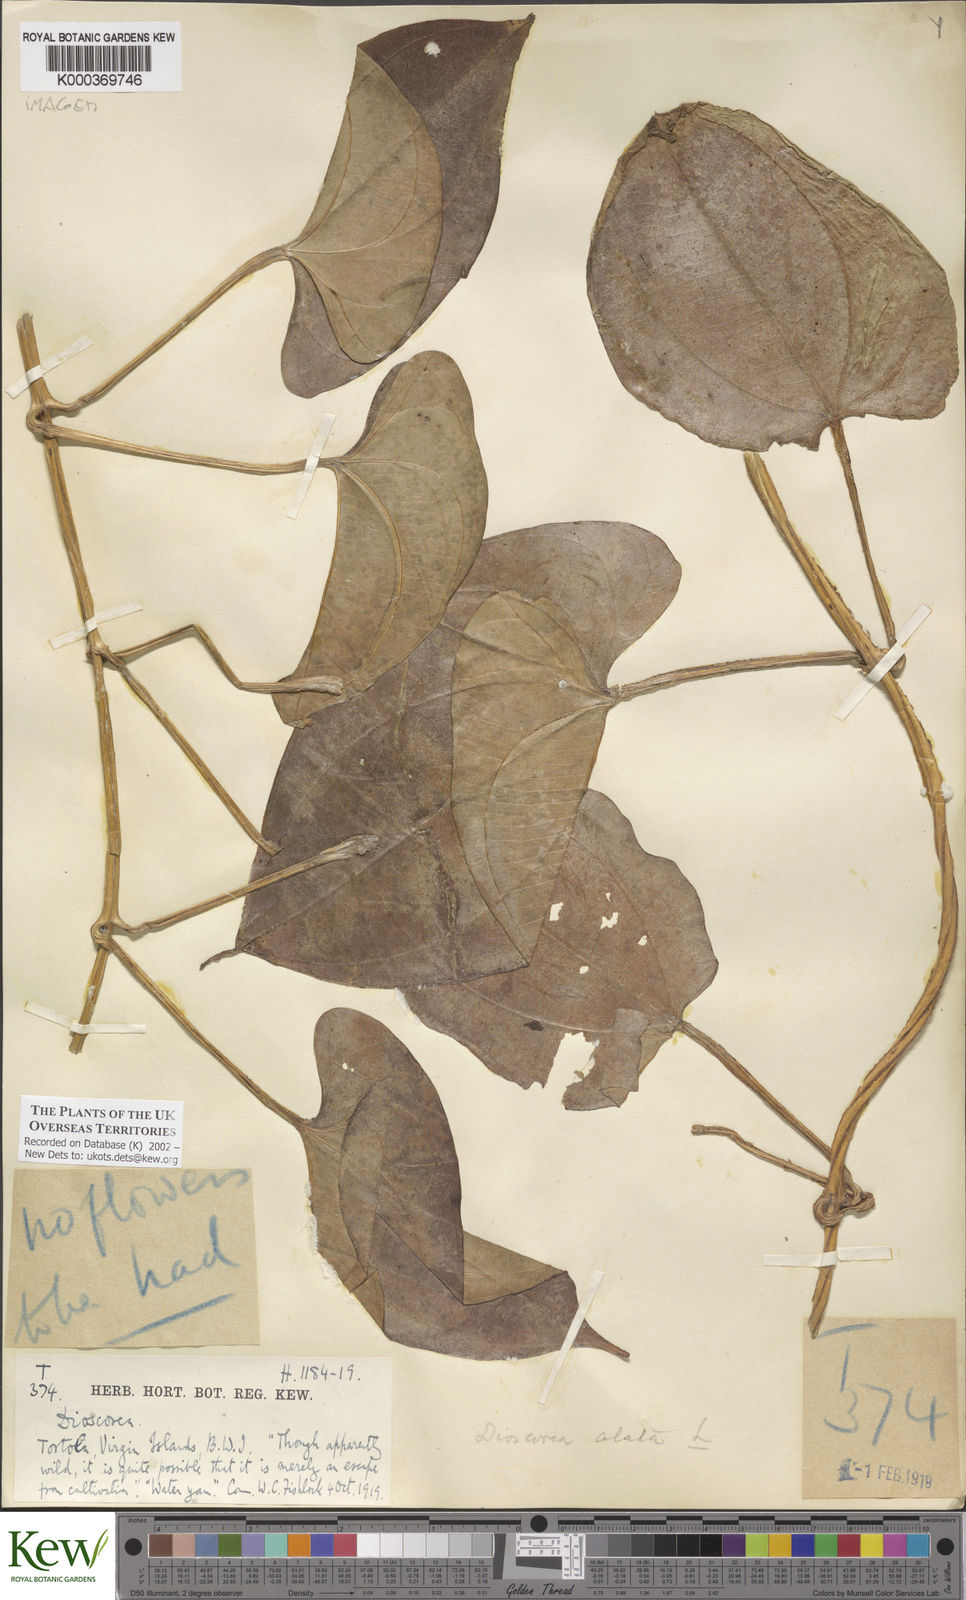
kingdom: Plantae
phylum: Tracheophyta
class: Liliopsida
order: Dioscoreales
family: Dioscoreaceae
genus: Dioscorea
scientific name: Dioscorea alata
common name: Water yam
